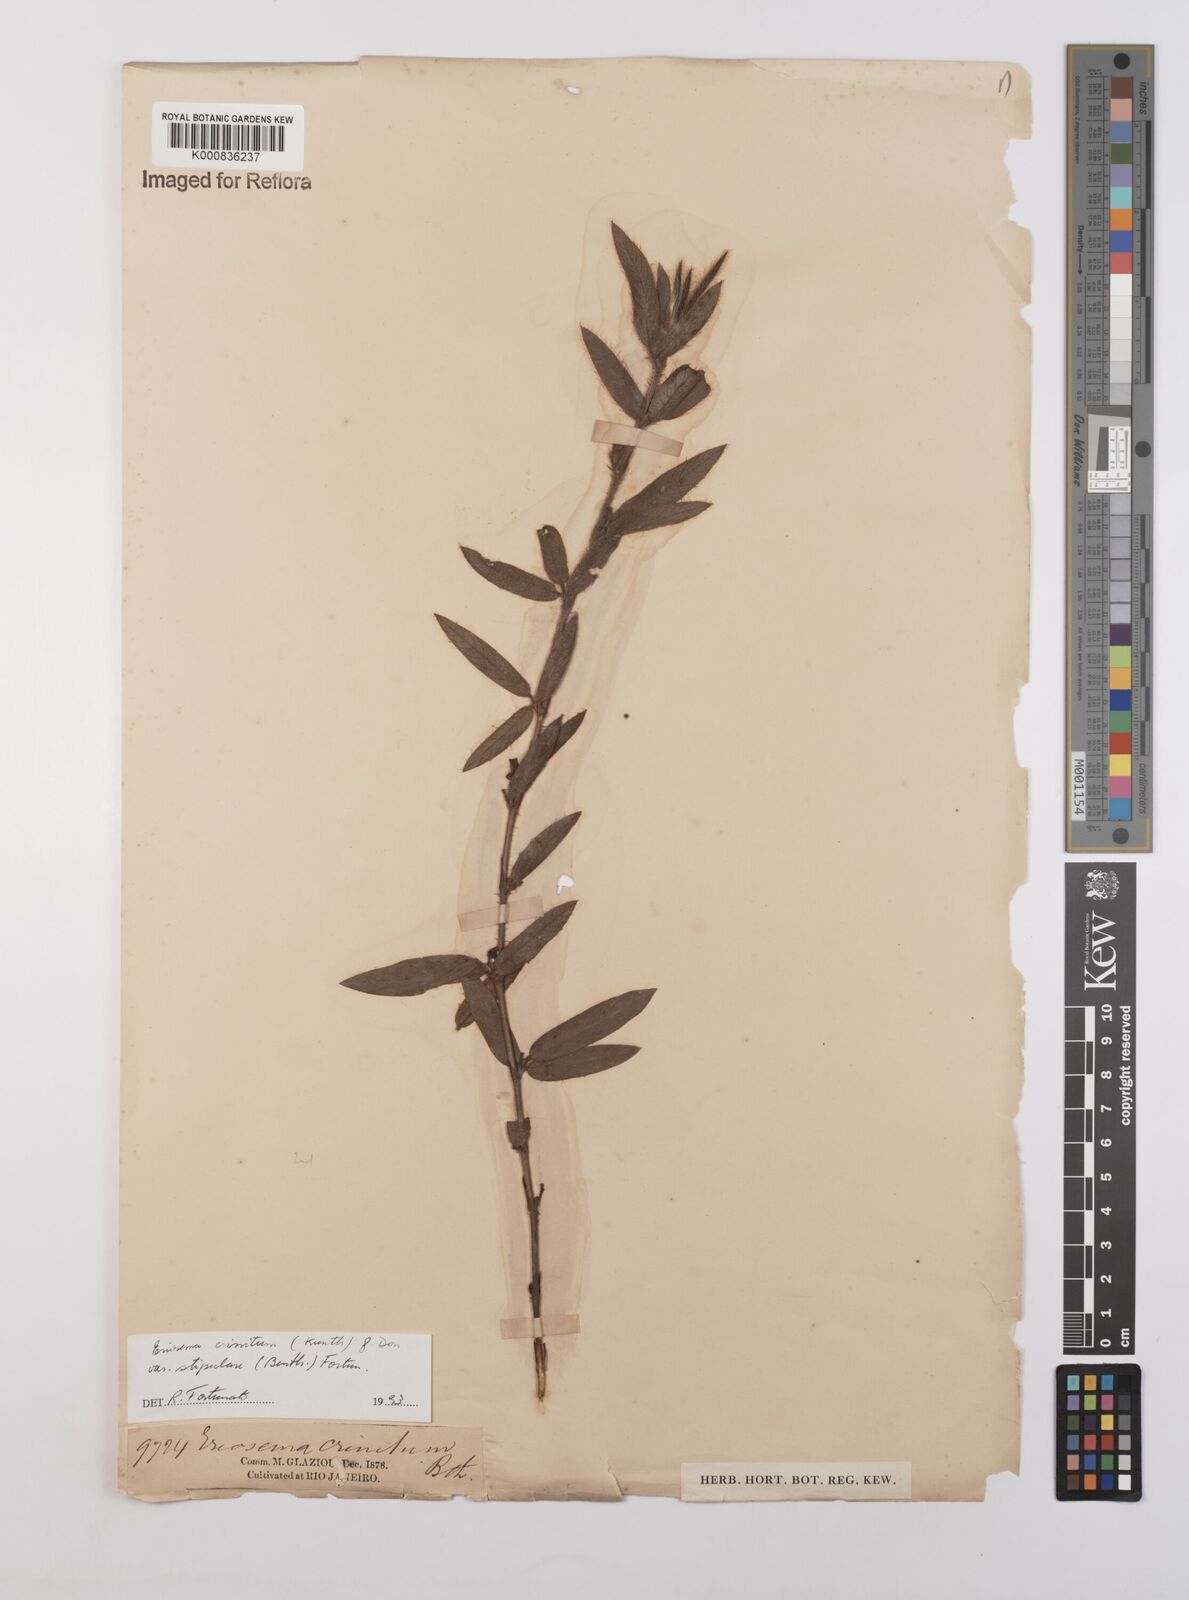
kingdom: Plantae
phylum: Tracheophyta
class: Magnoliopsida
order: Fabales
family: Fabaceae
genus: Eriosema
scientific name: Eriosema defoliatum
